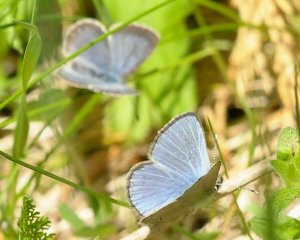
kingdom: Animalia
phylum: Arthropoda
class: Insecta
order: Lepidoptera
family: Lycaenidae
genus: Glaucopsyche
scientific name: Glaucopsyche lygdamus
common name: Silvery Blue
